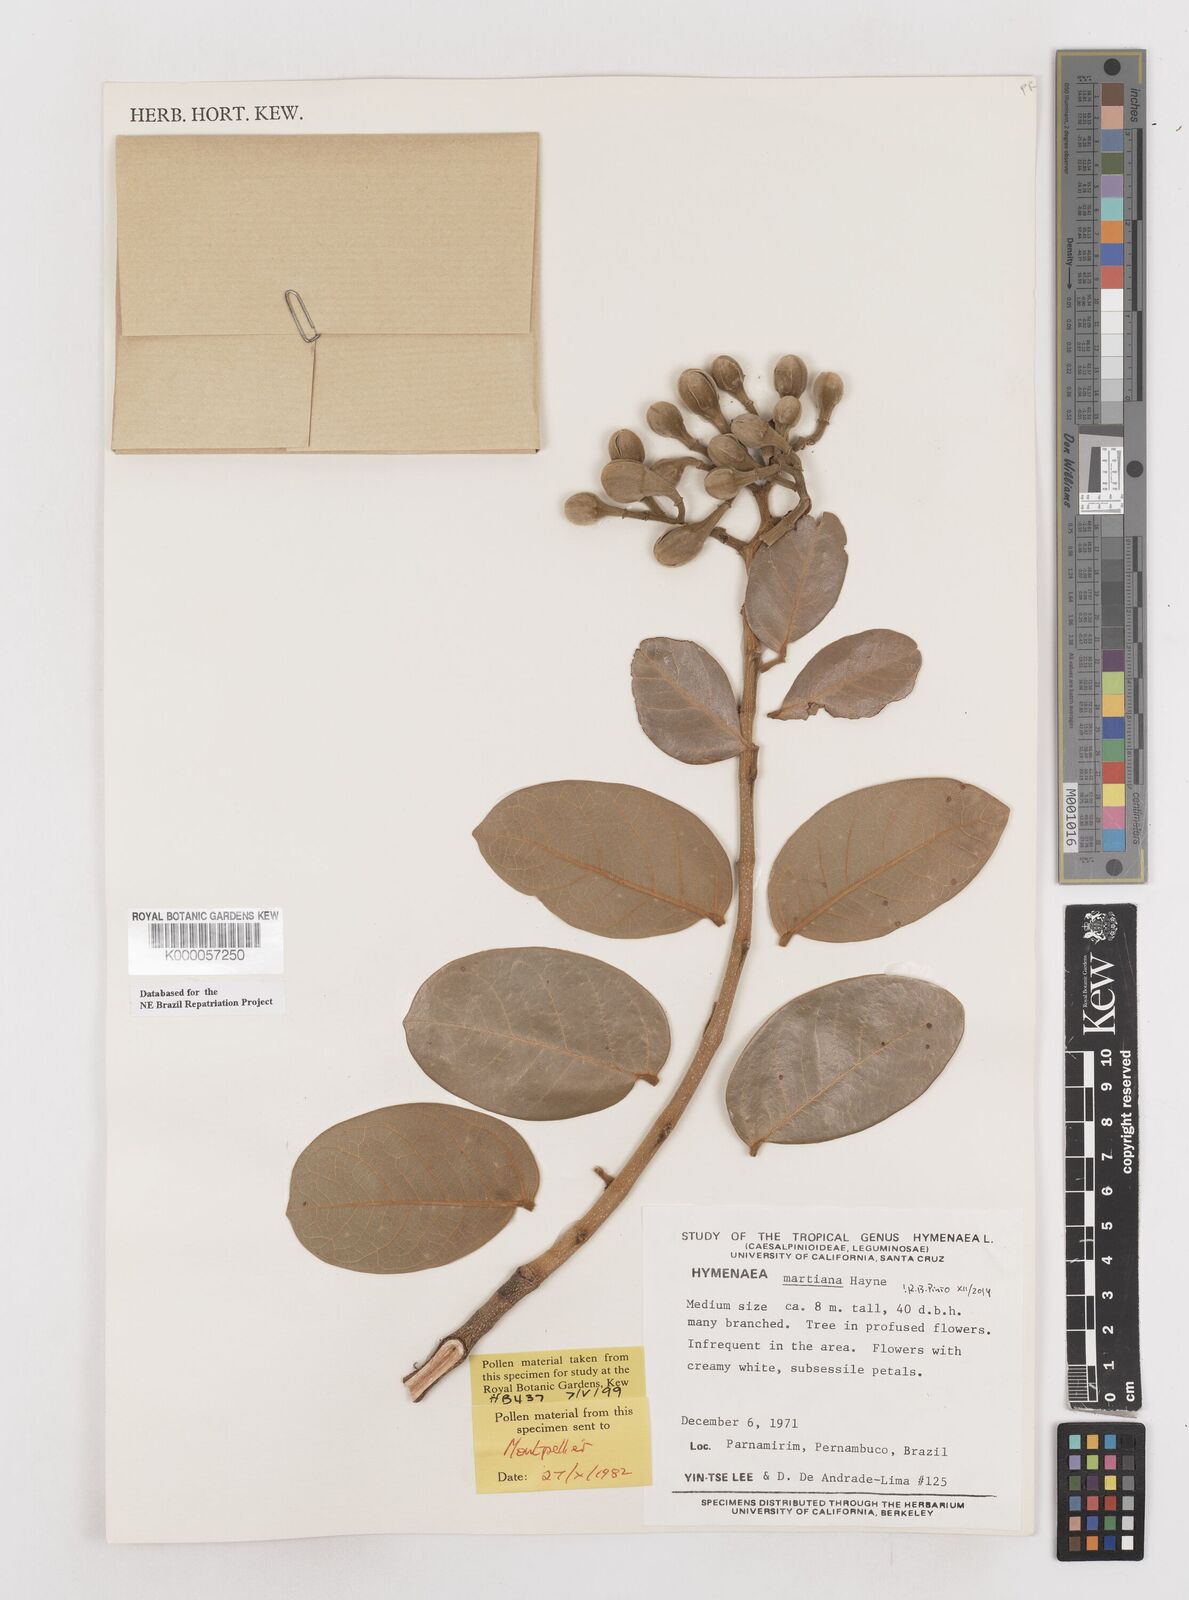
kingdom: Plantae
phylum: Tracheophyta
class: Magnoliopsida
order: Fabales
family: Fabaceae
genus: Hymenaea
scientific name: Hymenaea martiana
